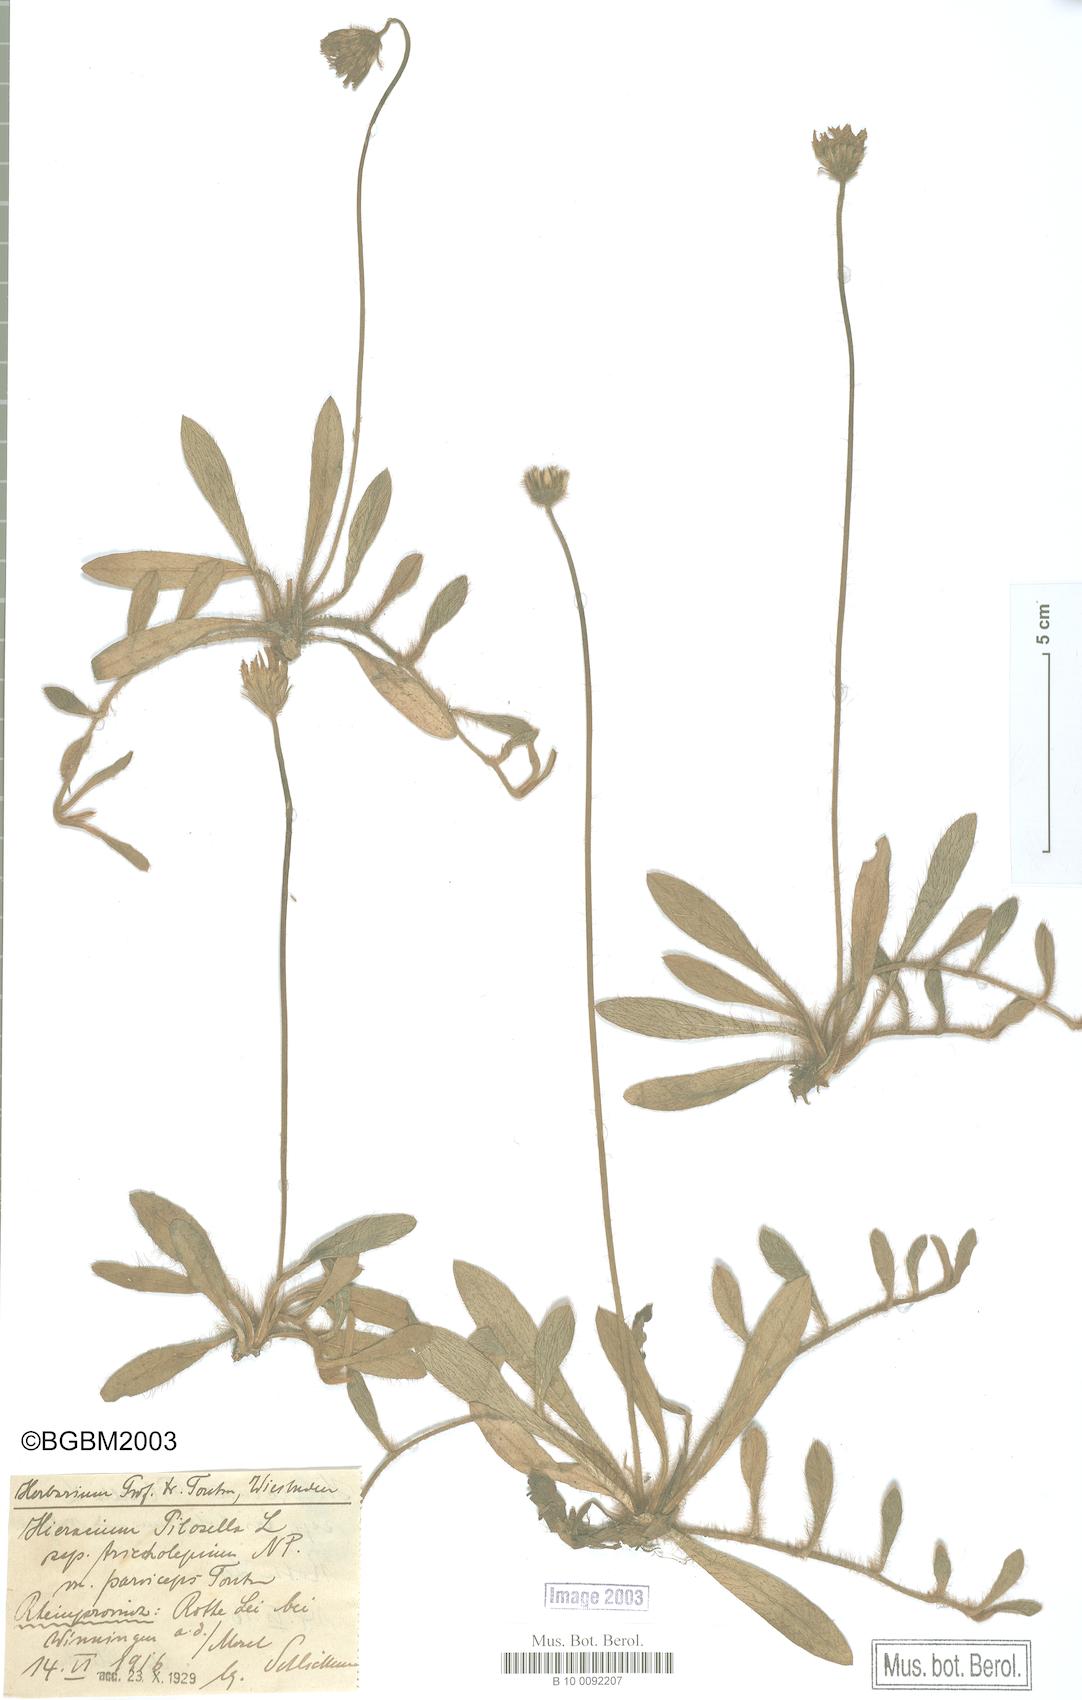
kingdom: Plantae
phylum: Tracheophyta
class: Magnoliopsida
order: Asterales
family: Asteraceae
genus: Pilosella
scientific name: Pilosella officinarum
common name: Mouse-ear hawkweed
